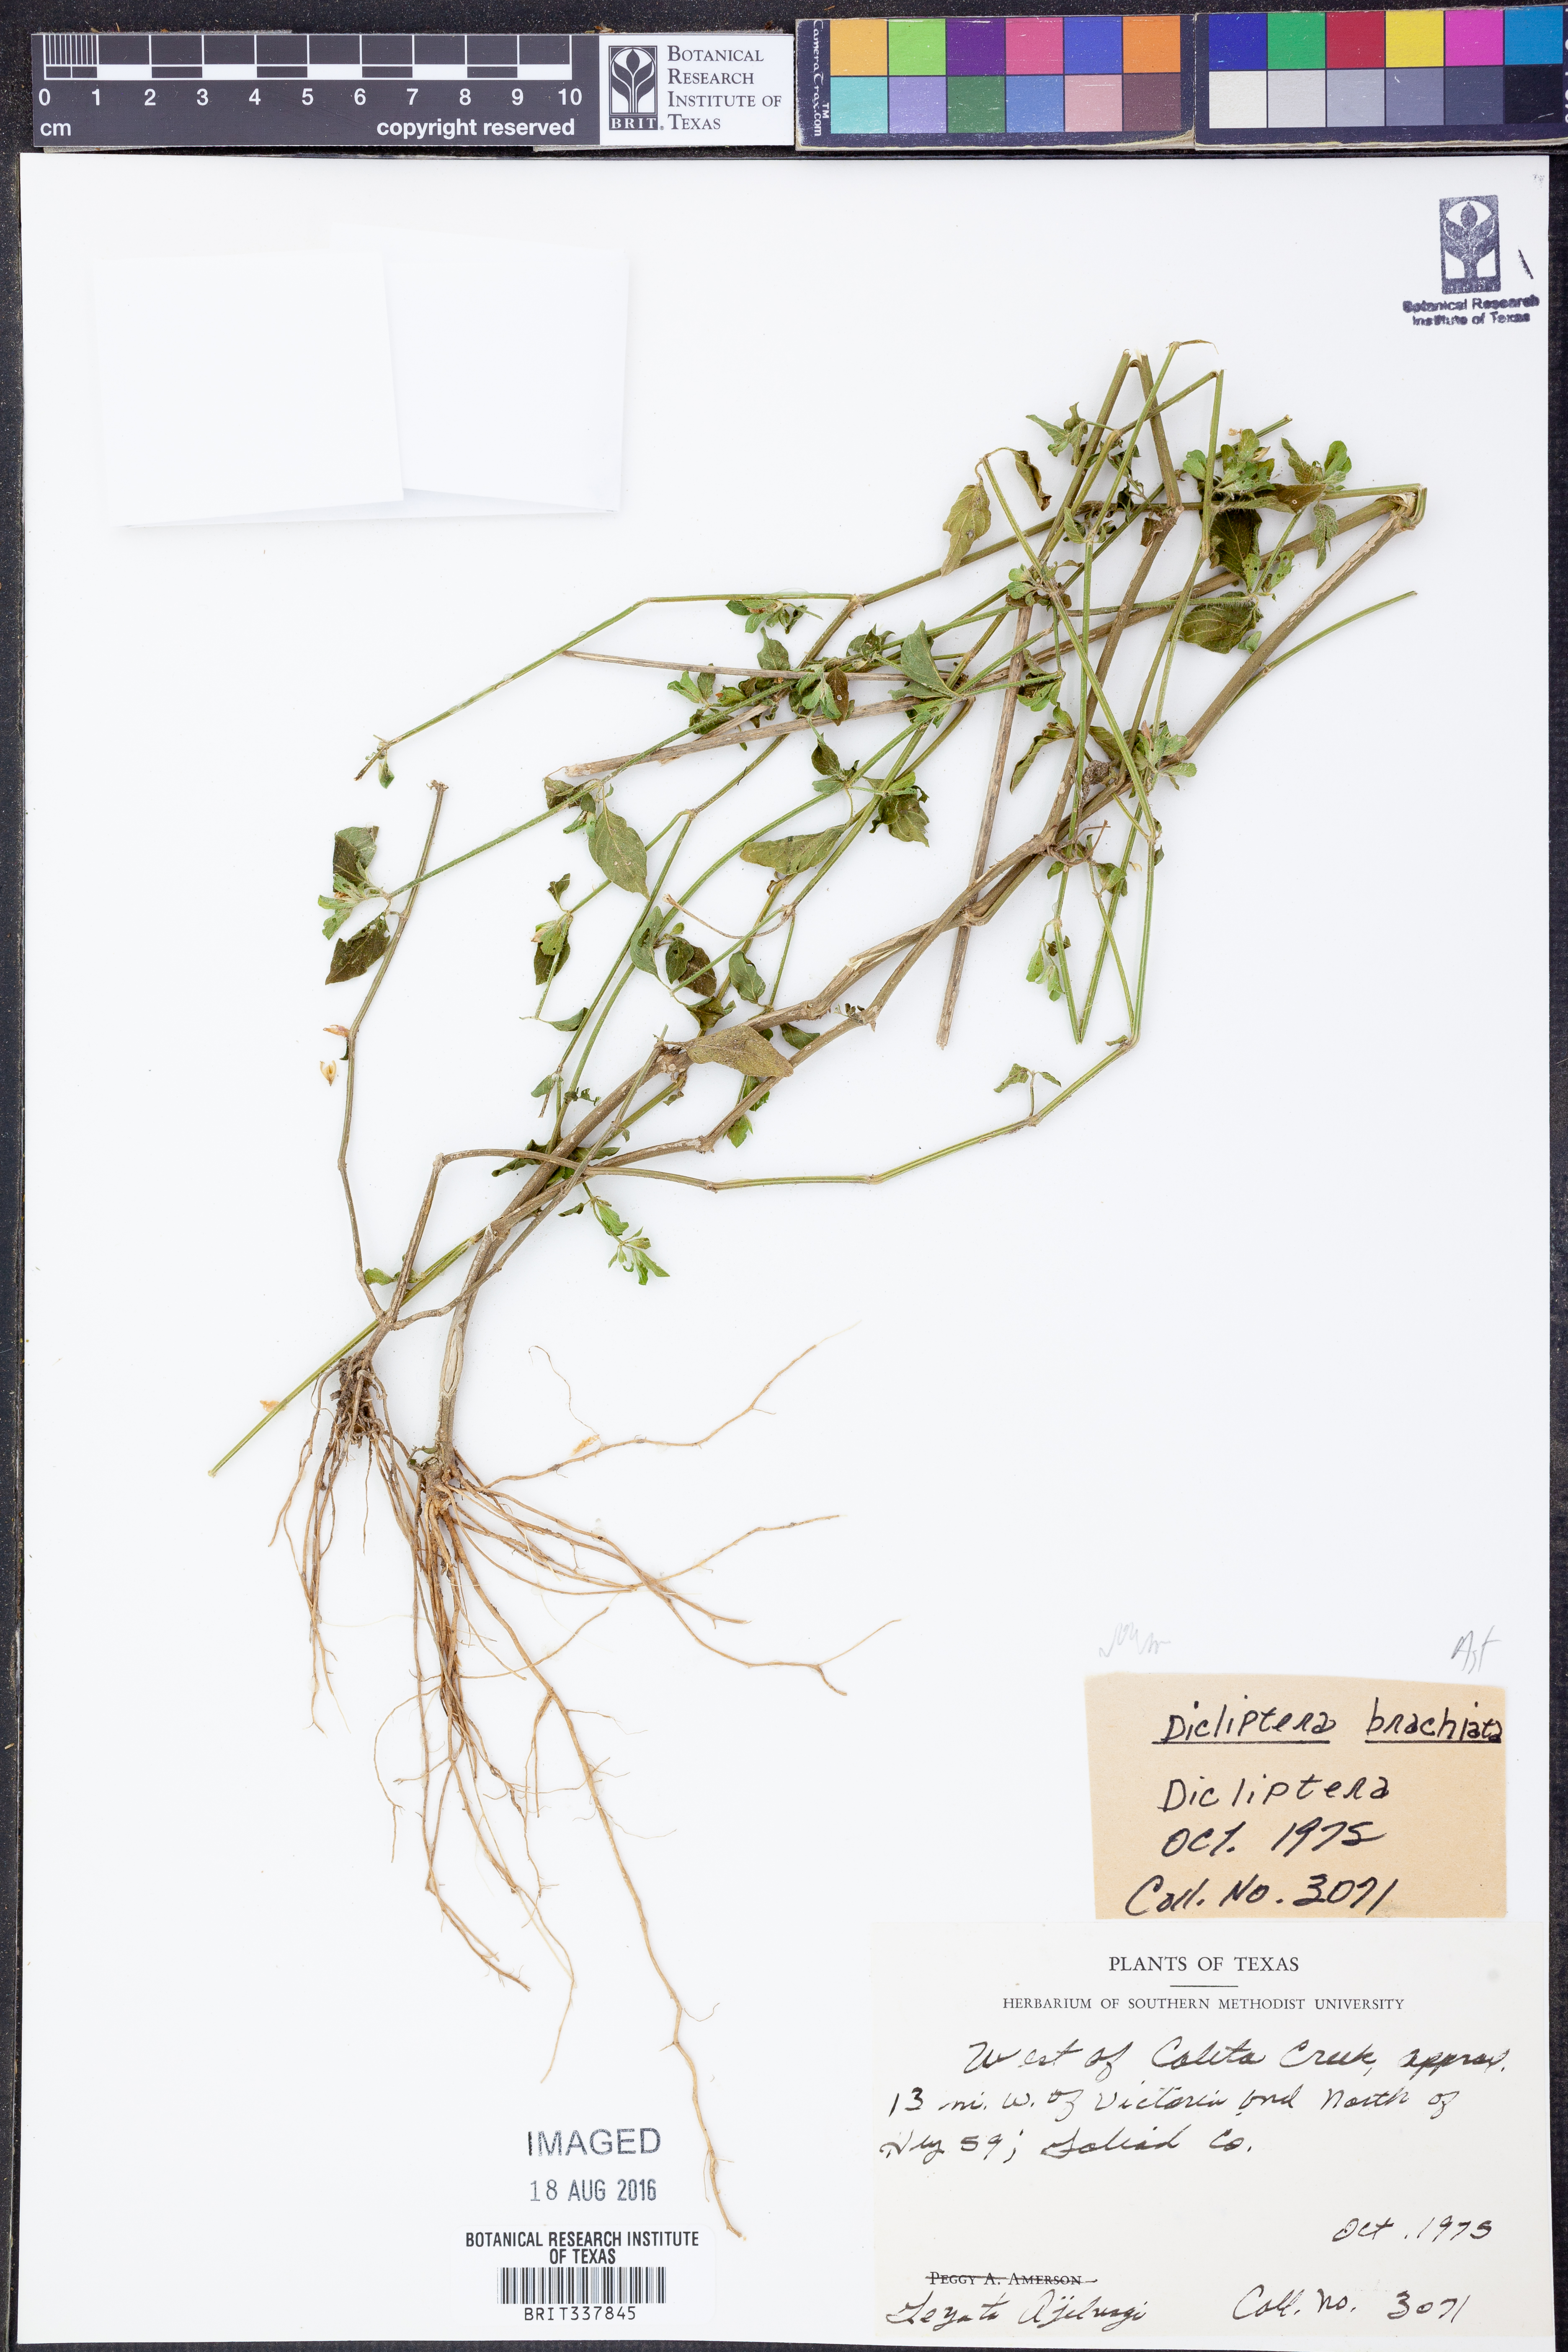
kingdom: Plantae
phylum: Tracheophyta
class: Magnoliopsida
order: Lamiales
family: Acanthaceae
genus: Dicliptera
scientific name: Dicliptera brachiata
